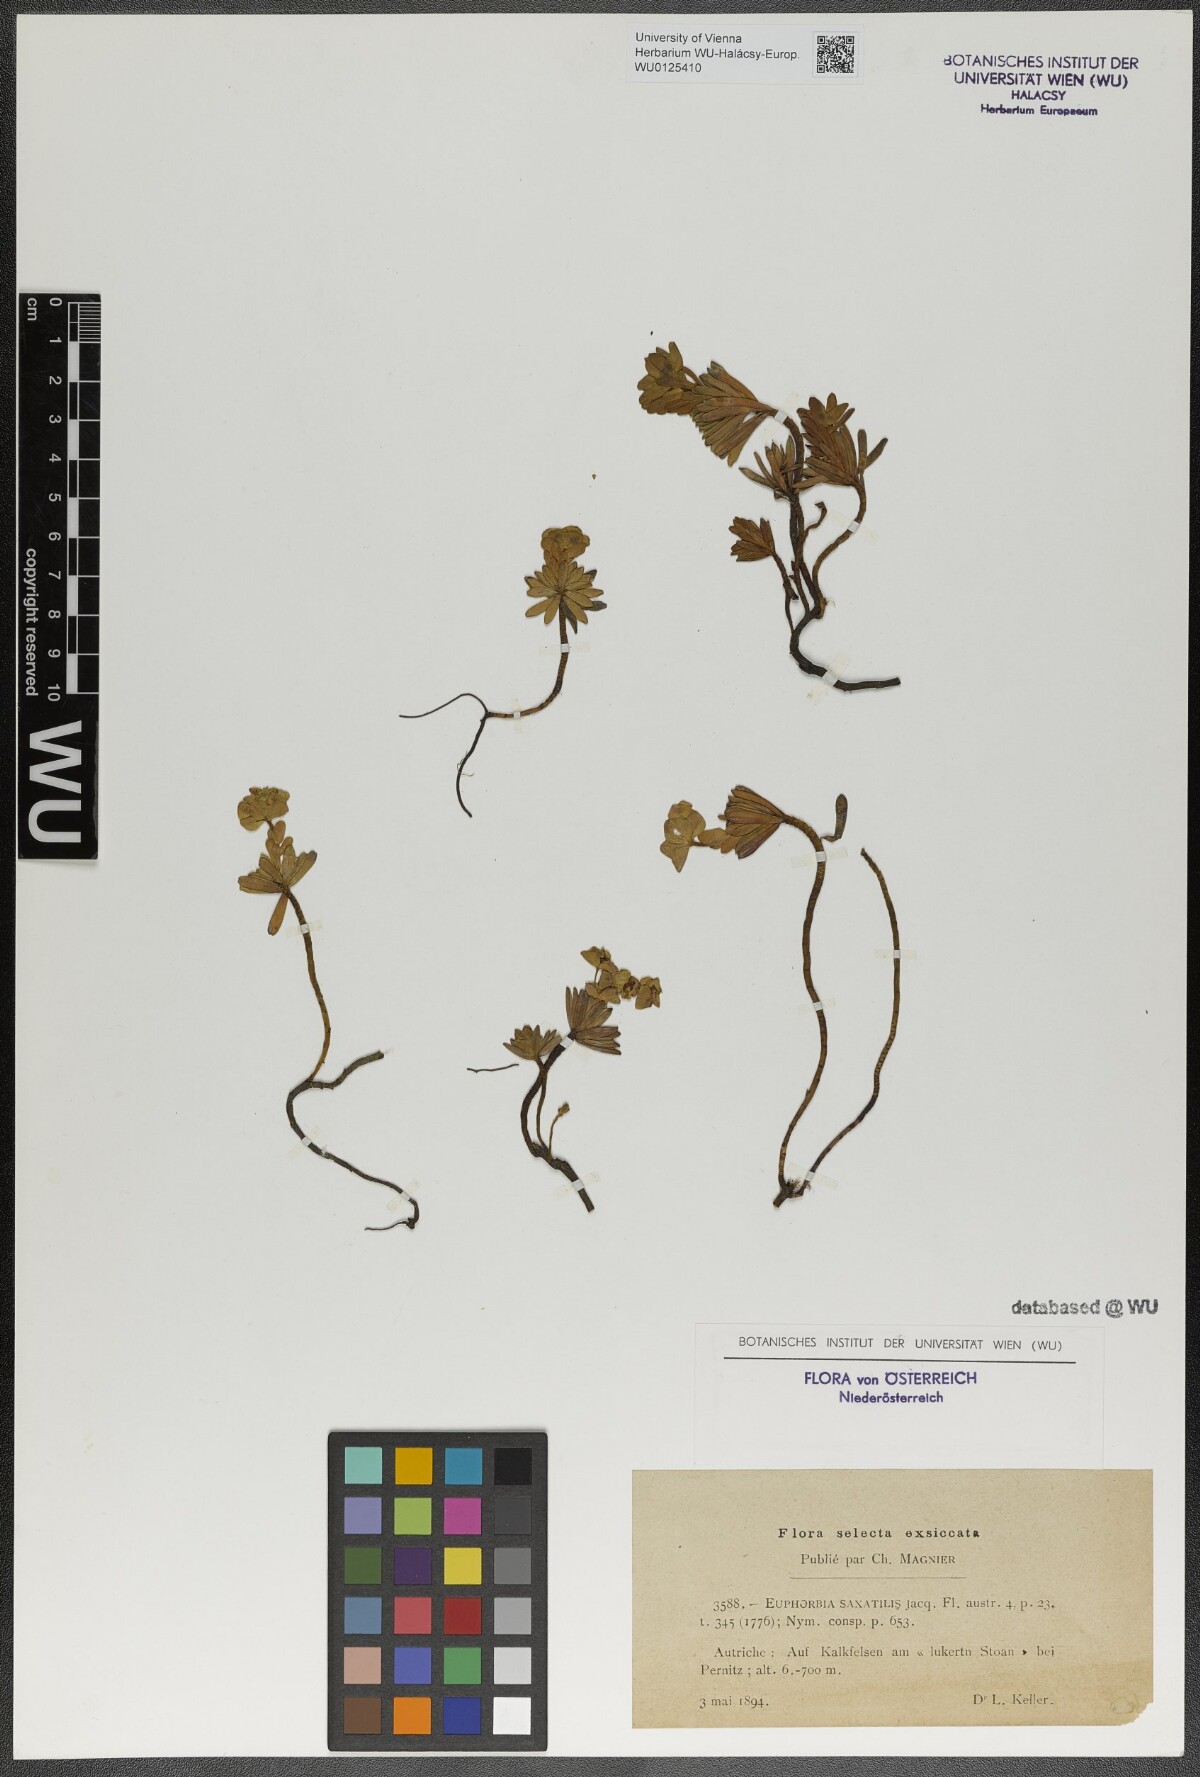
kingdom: Plantae
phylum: Tracheophyta
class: Magnoliopsida
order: Malpighiales
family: Euphorbiaceae
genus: Euphorbia
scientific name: Euphorbia saxatilis
